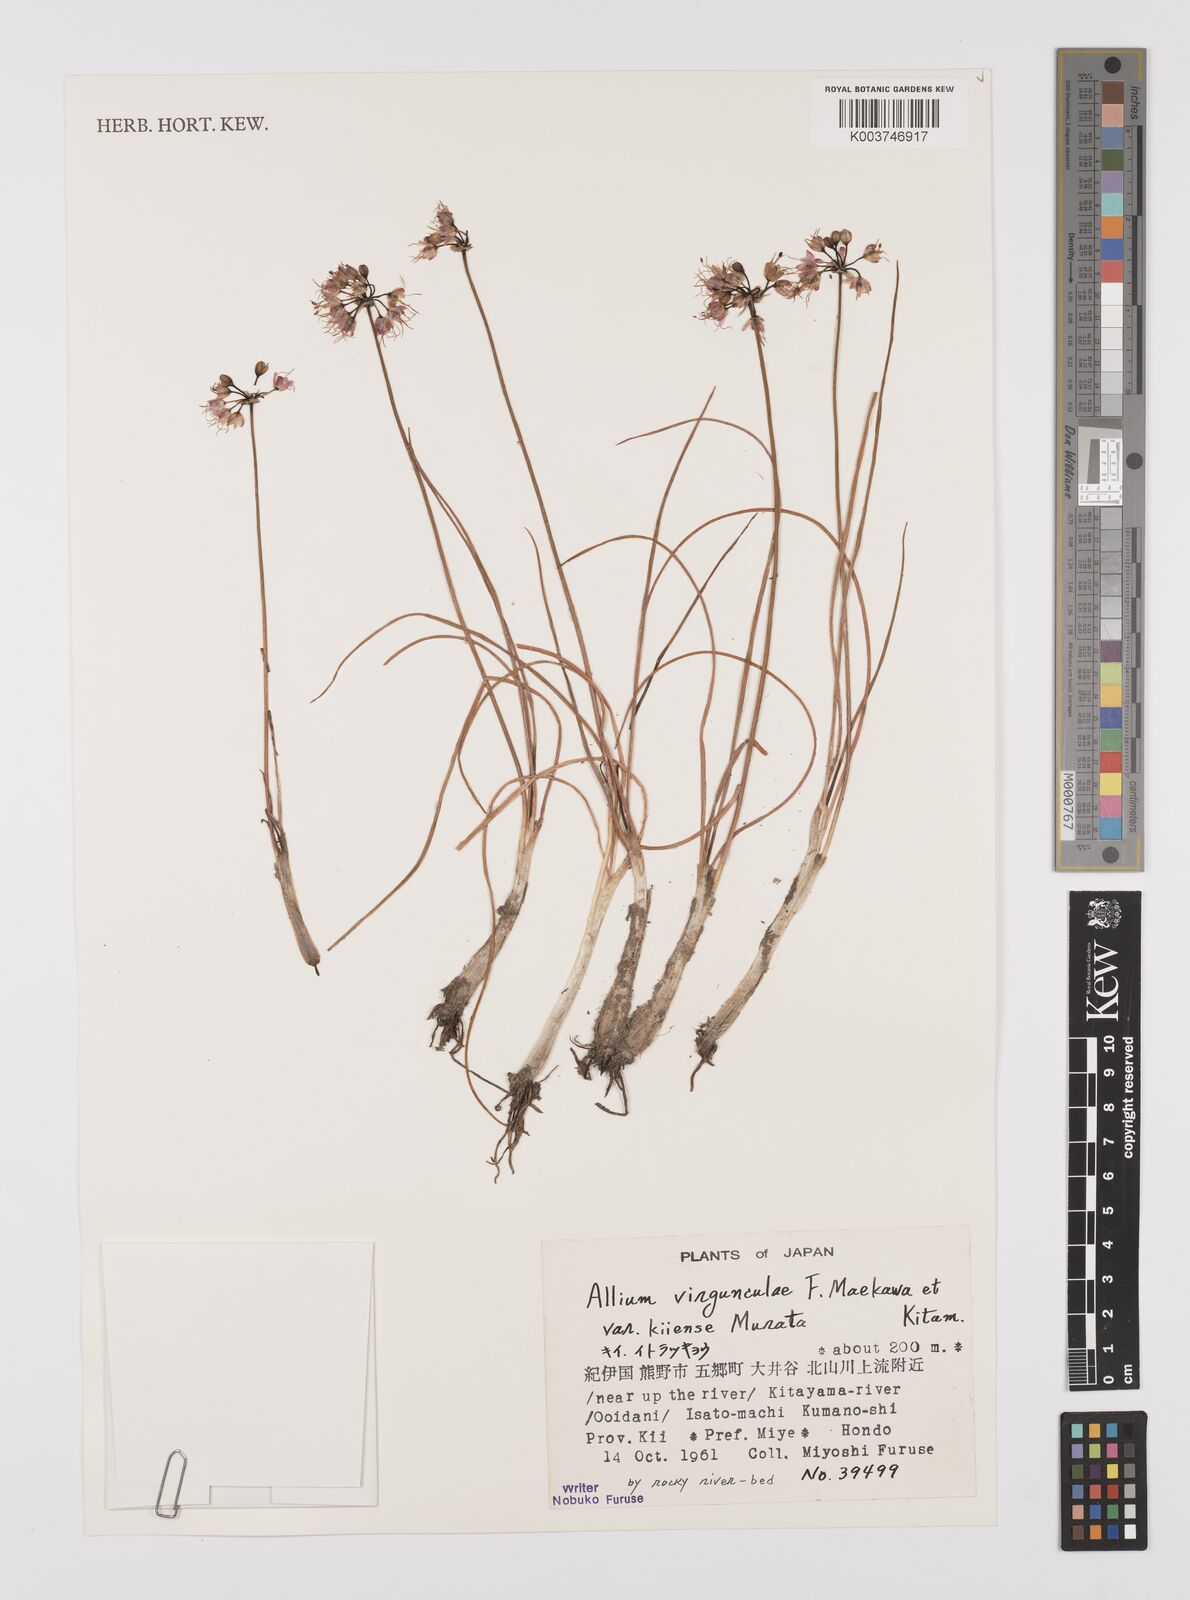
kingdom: Plantae
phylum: Tracheophyta
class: Liliopsida
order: Asparagales
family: Amaryllidaceae
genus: Allium
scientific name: Allium virgunculae
